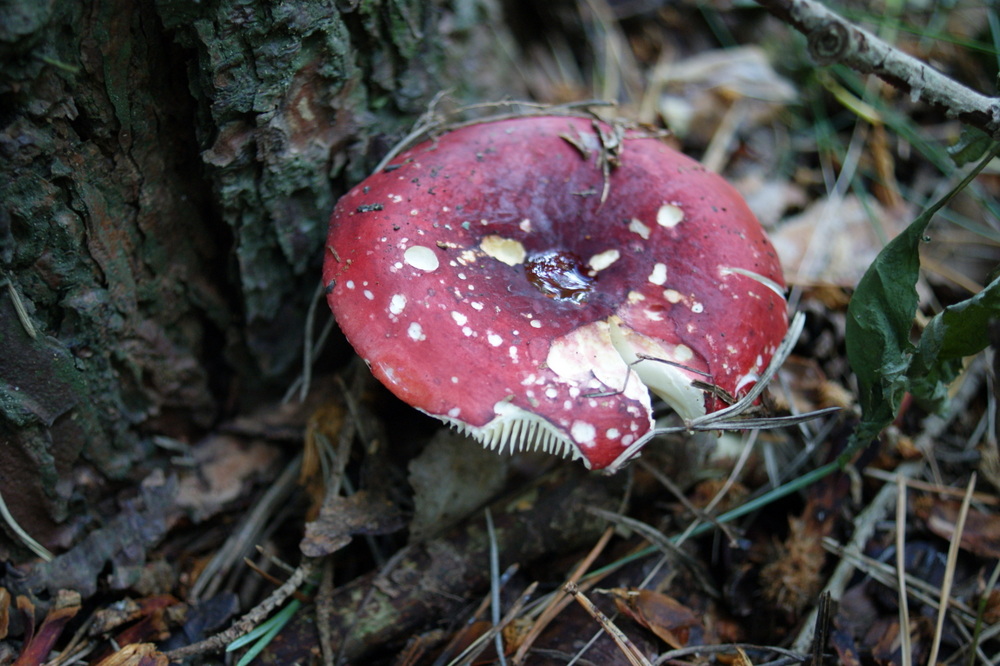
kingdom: Fungi
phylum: Basidiomycota
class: Agaricomycetes
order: Russulales
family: Russulaceae
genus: Russula
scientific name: Russula xerampelina
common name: hummer-skørhat
